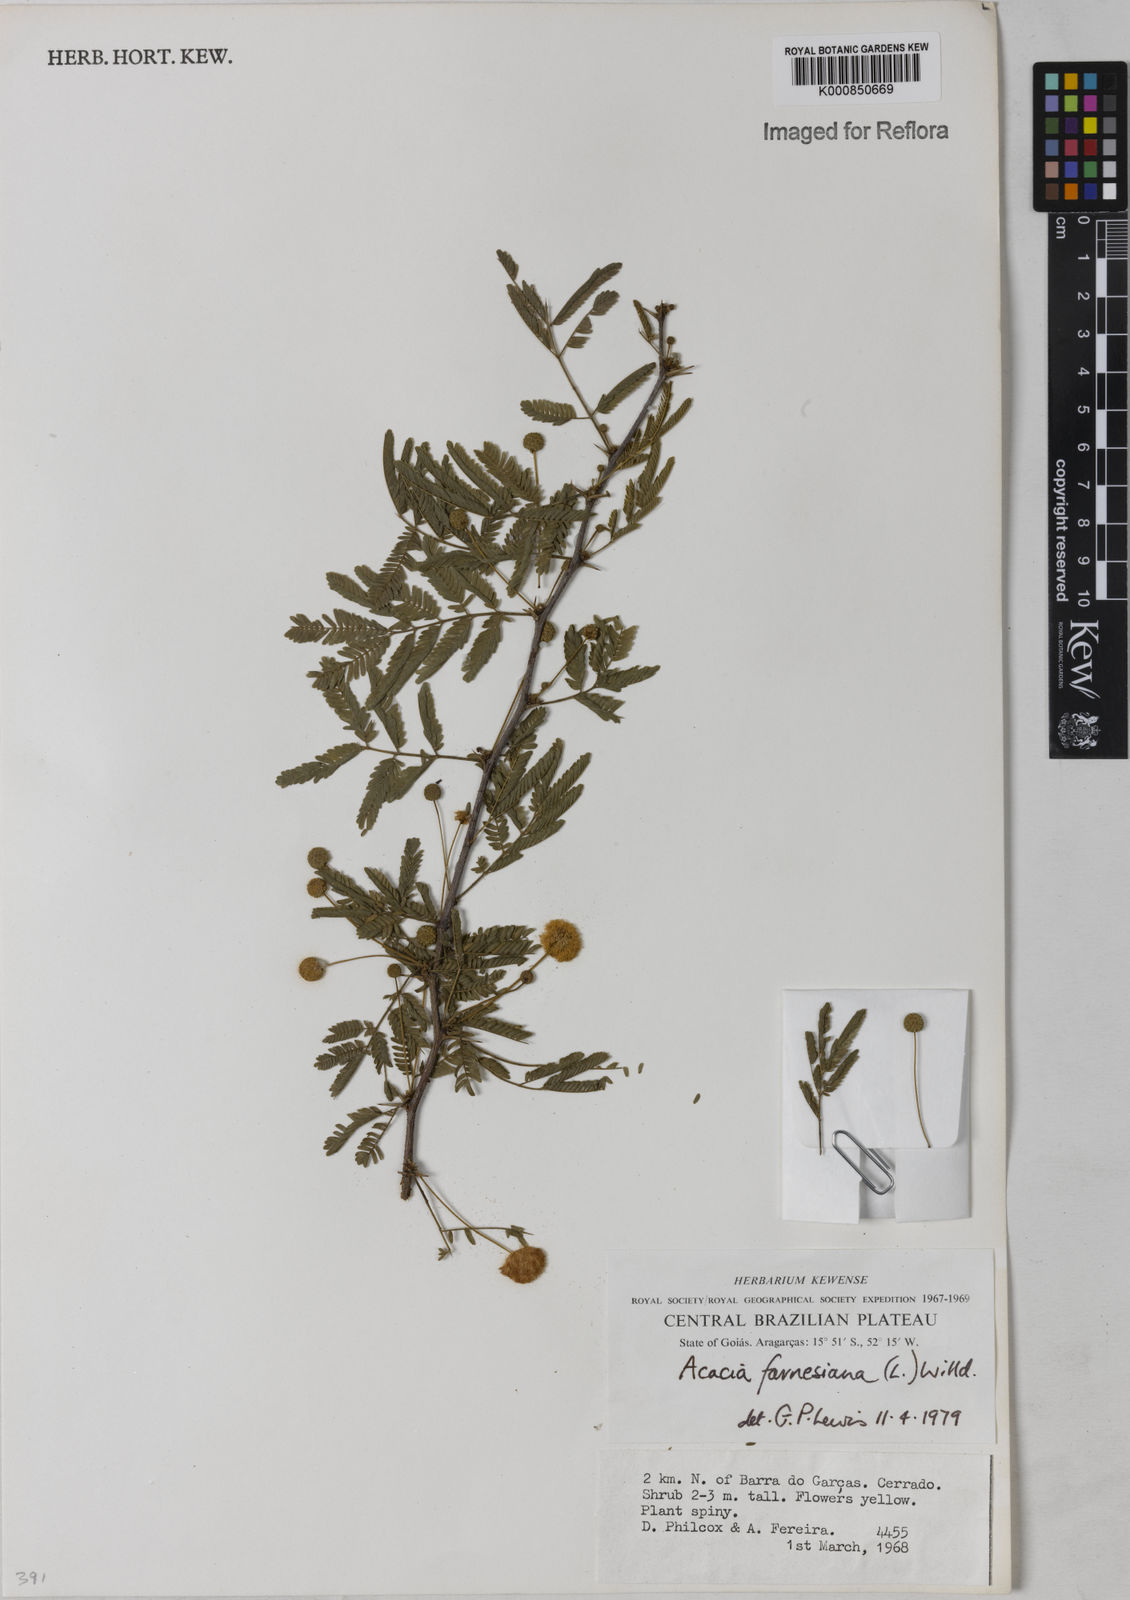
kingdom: Plantae
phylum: Tracheophyta
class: Magnoliopsida
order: Fabales
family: Fabaceae
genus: Vachellia
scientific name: Vachellia farnesiana
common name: Sweet acacia
